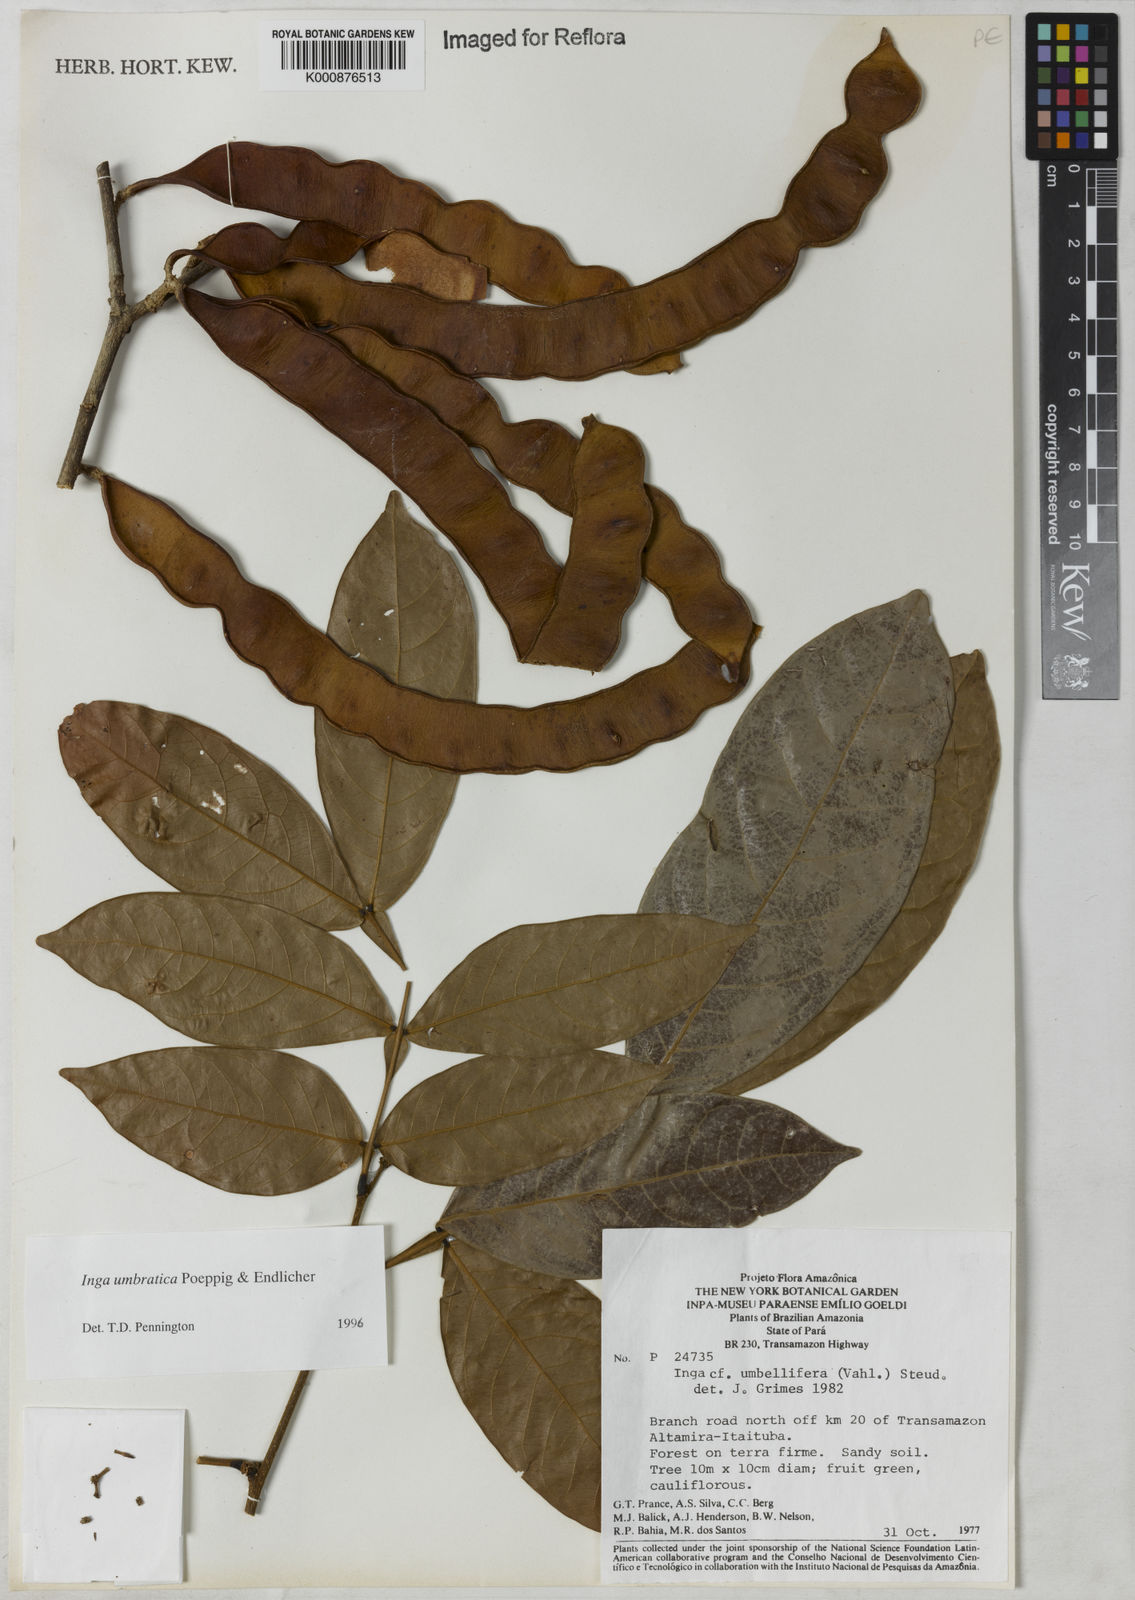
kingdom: Plantae
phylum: Tracheophyta
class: Magnoliopsida
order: Fabales
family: Fabaceae
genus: Inga
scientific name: Inga umbratica
